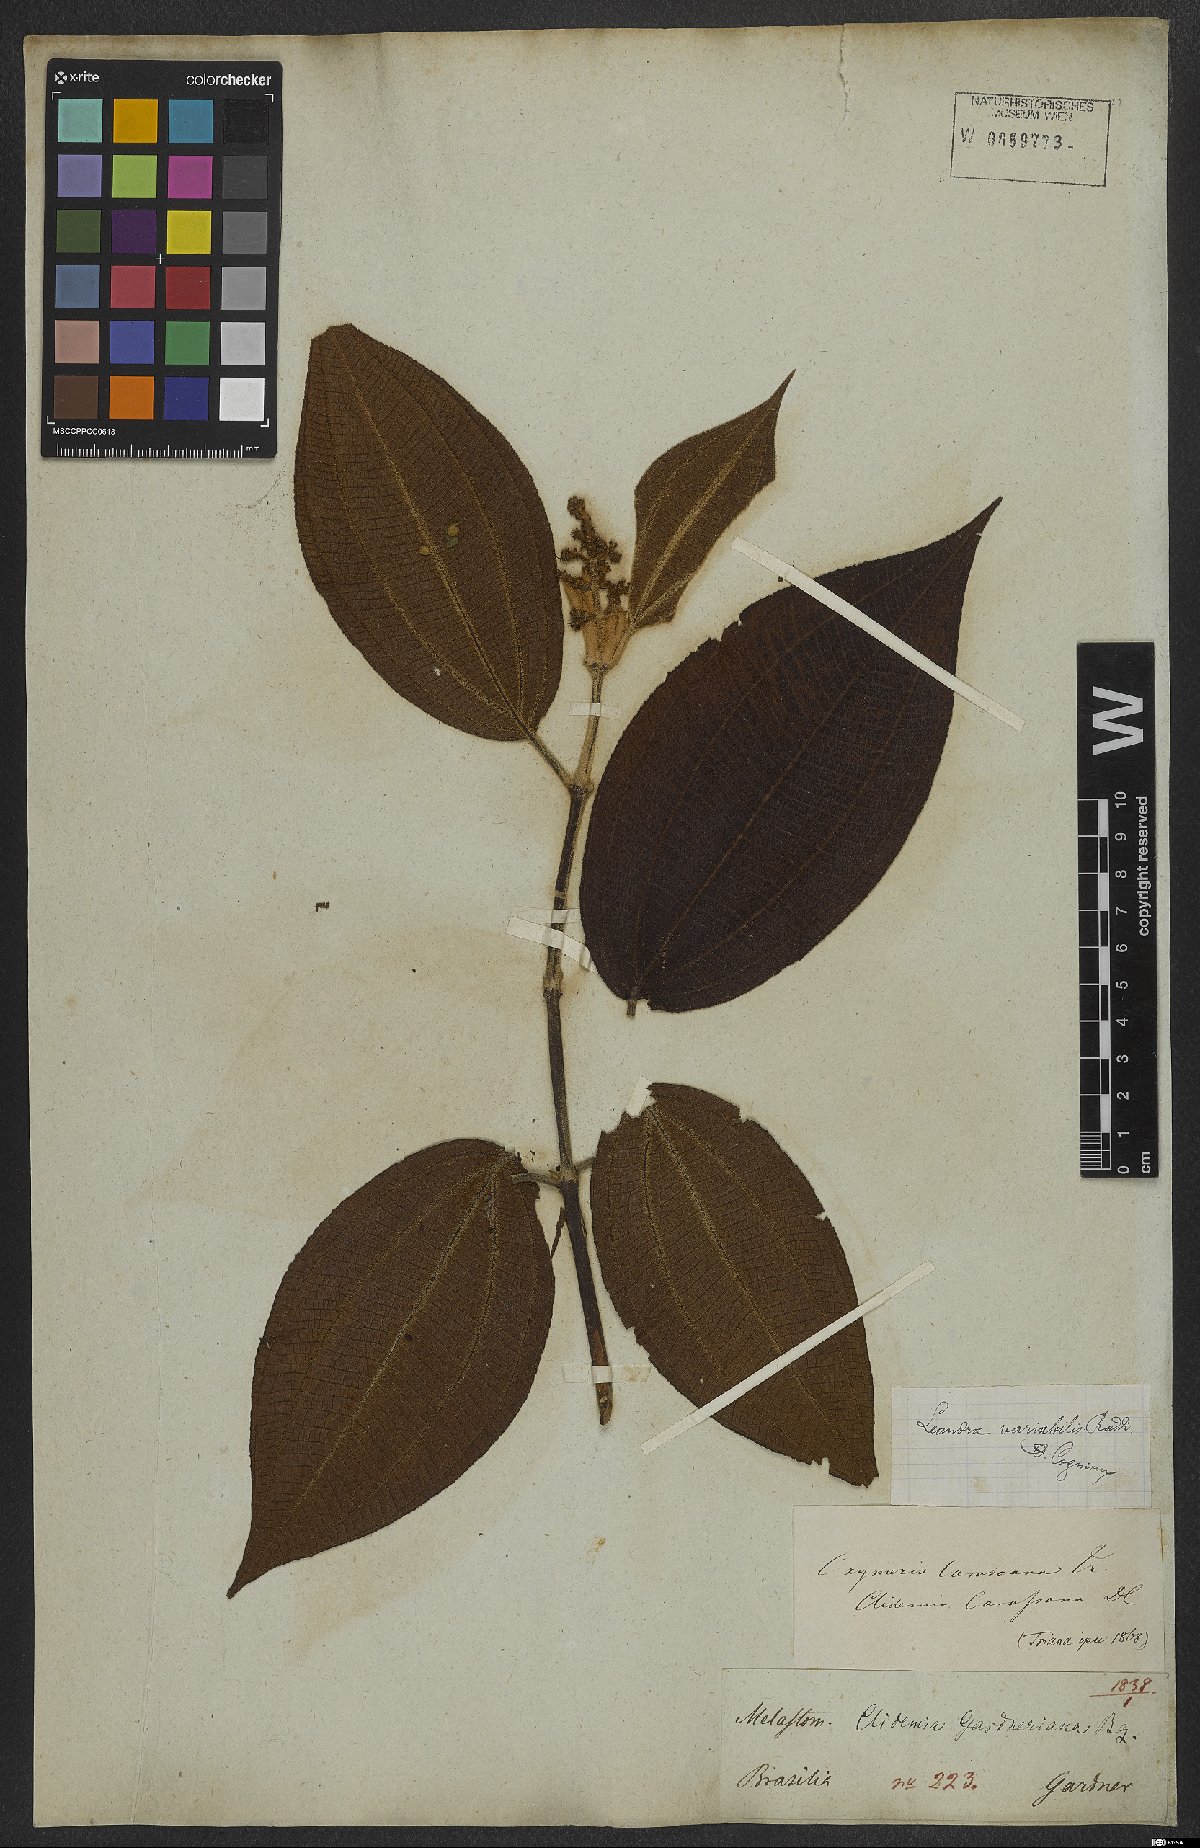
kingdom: Plantae
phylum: Tracheophyta
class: Magnoliopsida
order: Myrtales
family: Melastomataceae
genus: Miconia
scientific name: Miconia dasytricha
